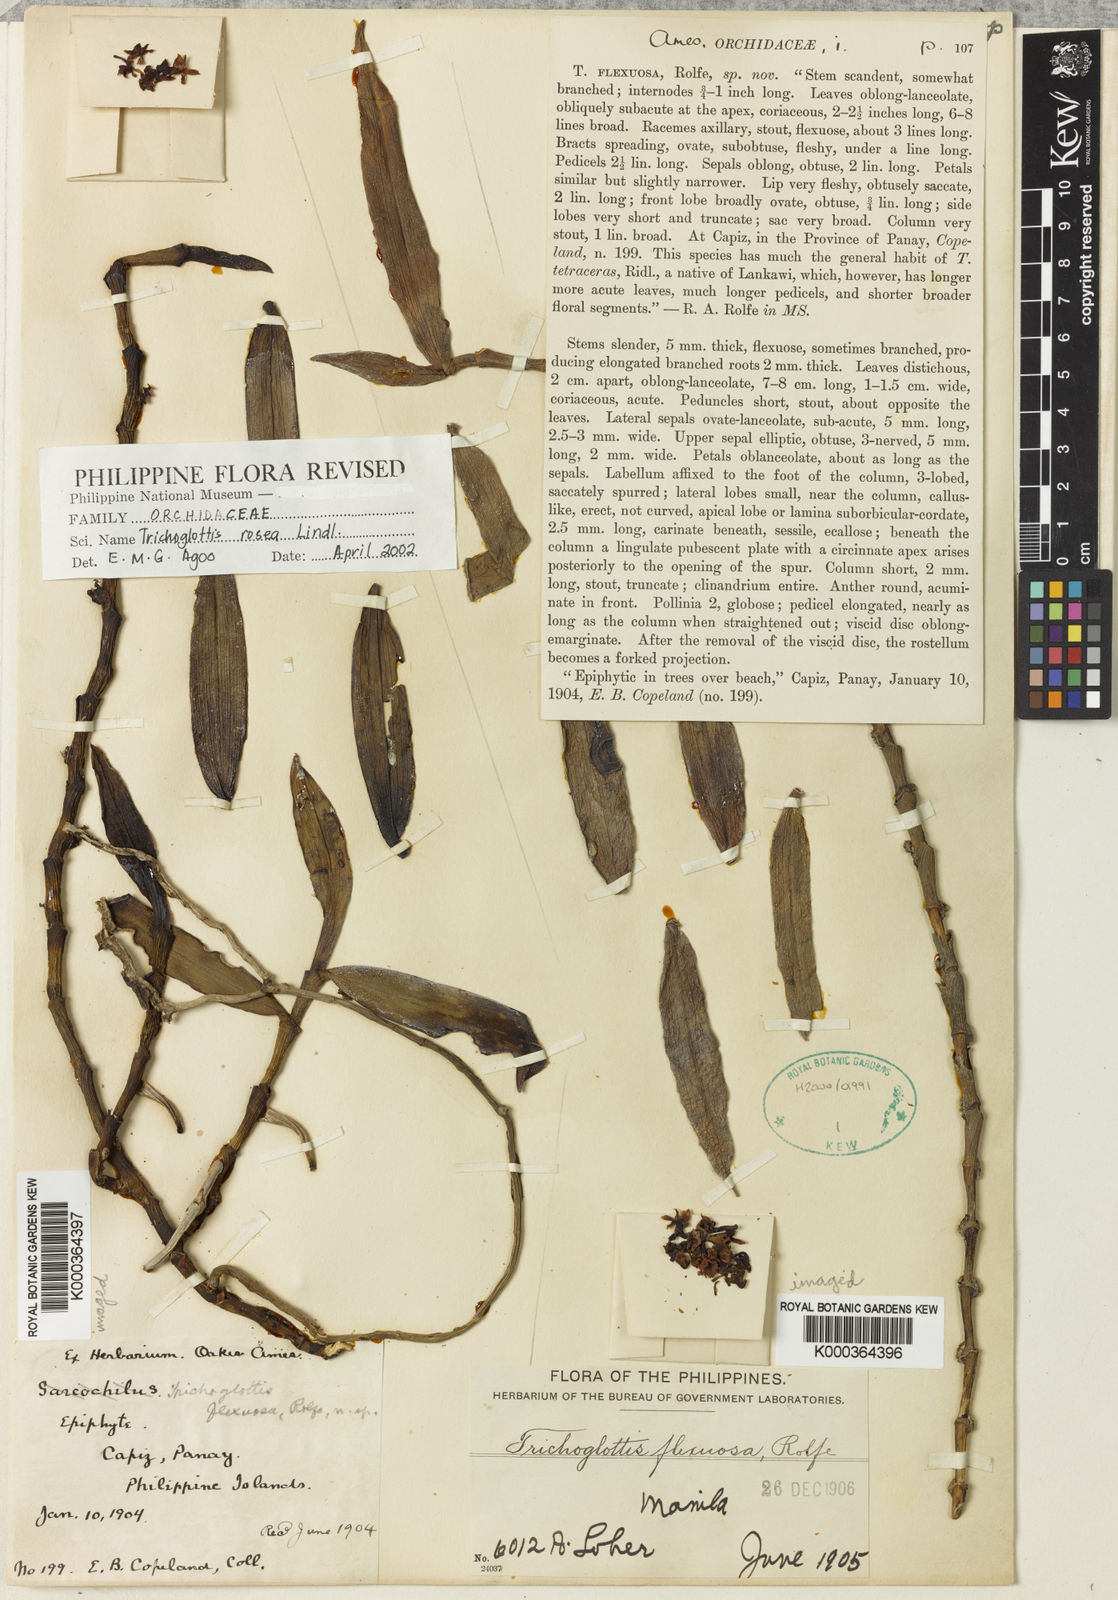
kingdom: Plantae
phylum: Tracheophyta
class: Liliopsida
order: Asparagales
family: Orchidaceae
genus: Trichoglottis
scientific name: Trichoglottis rosea
